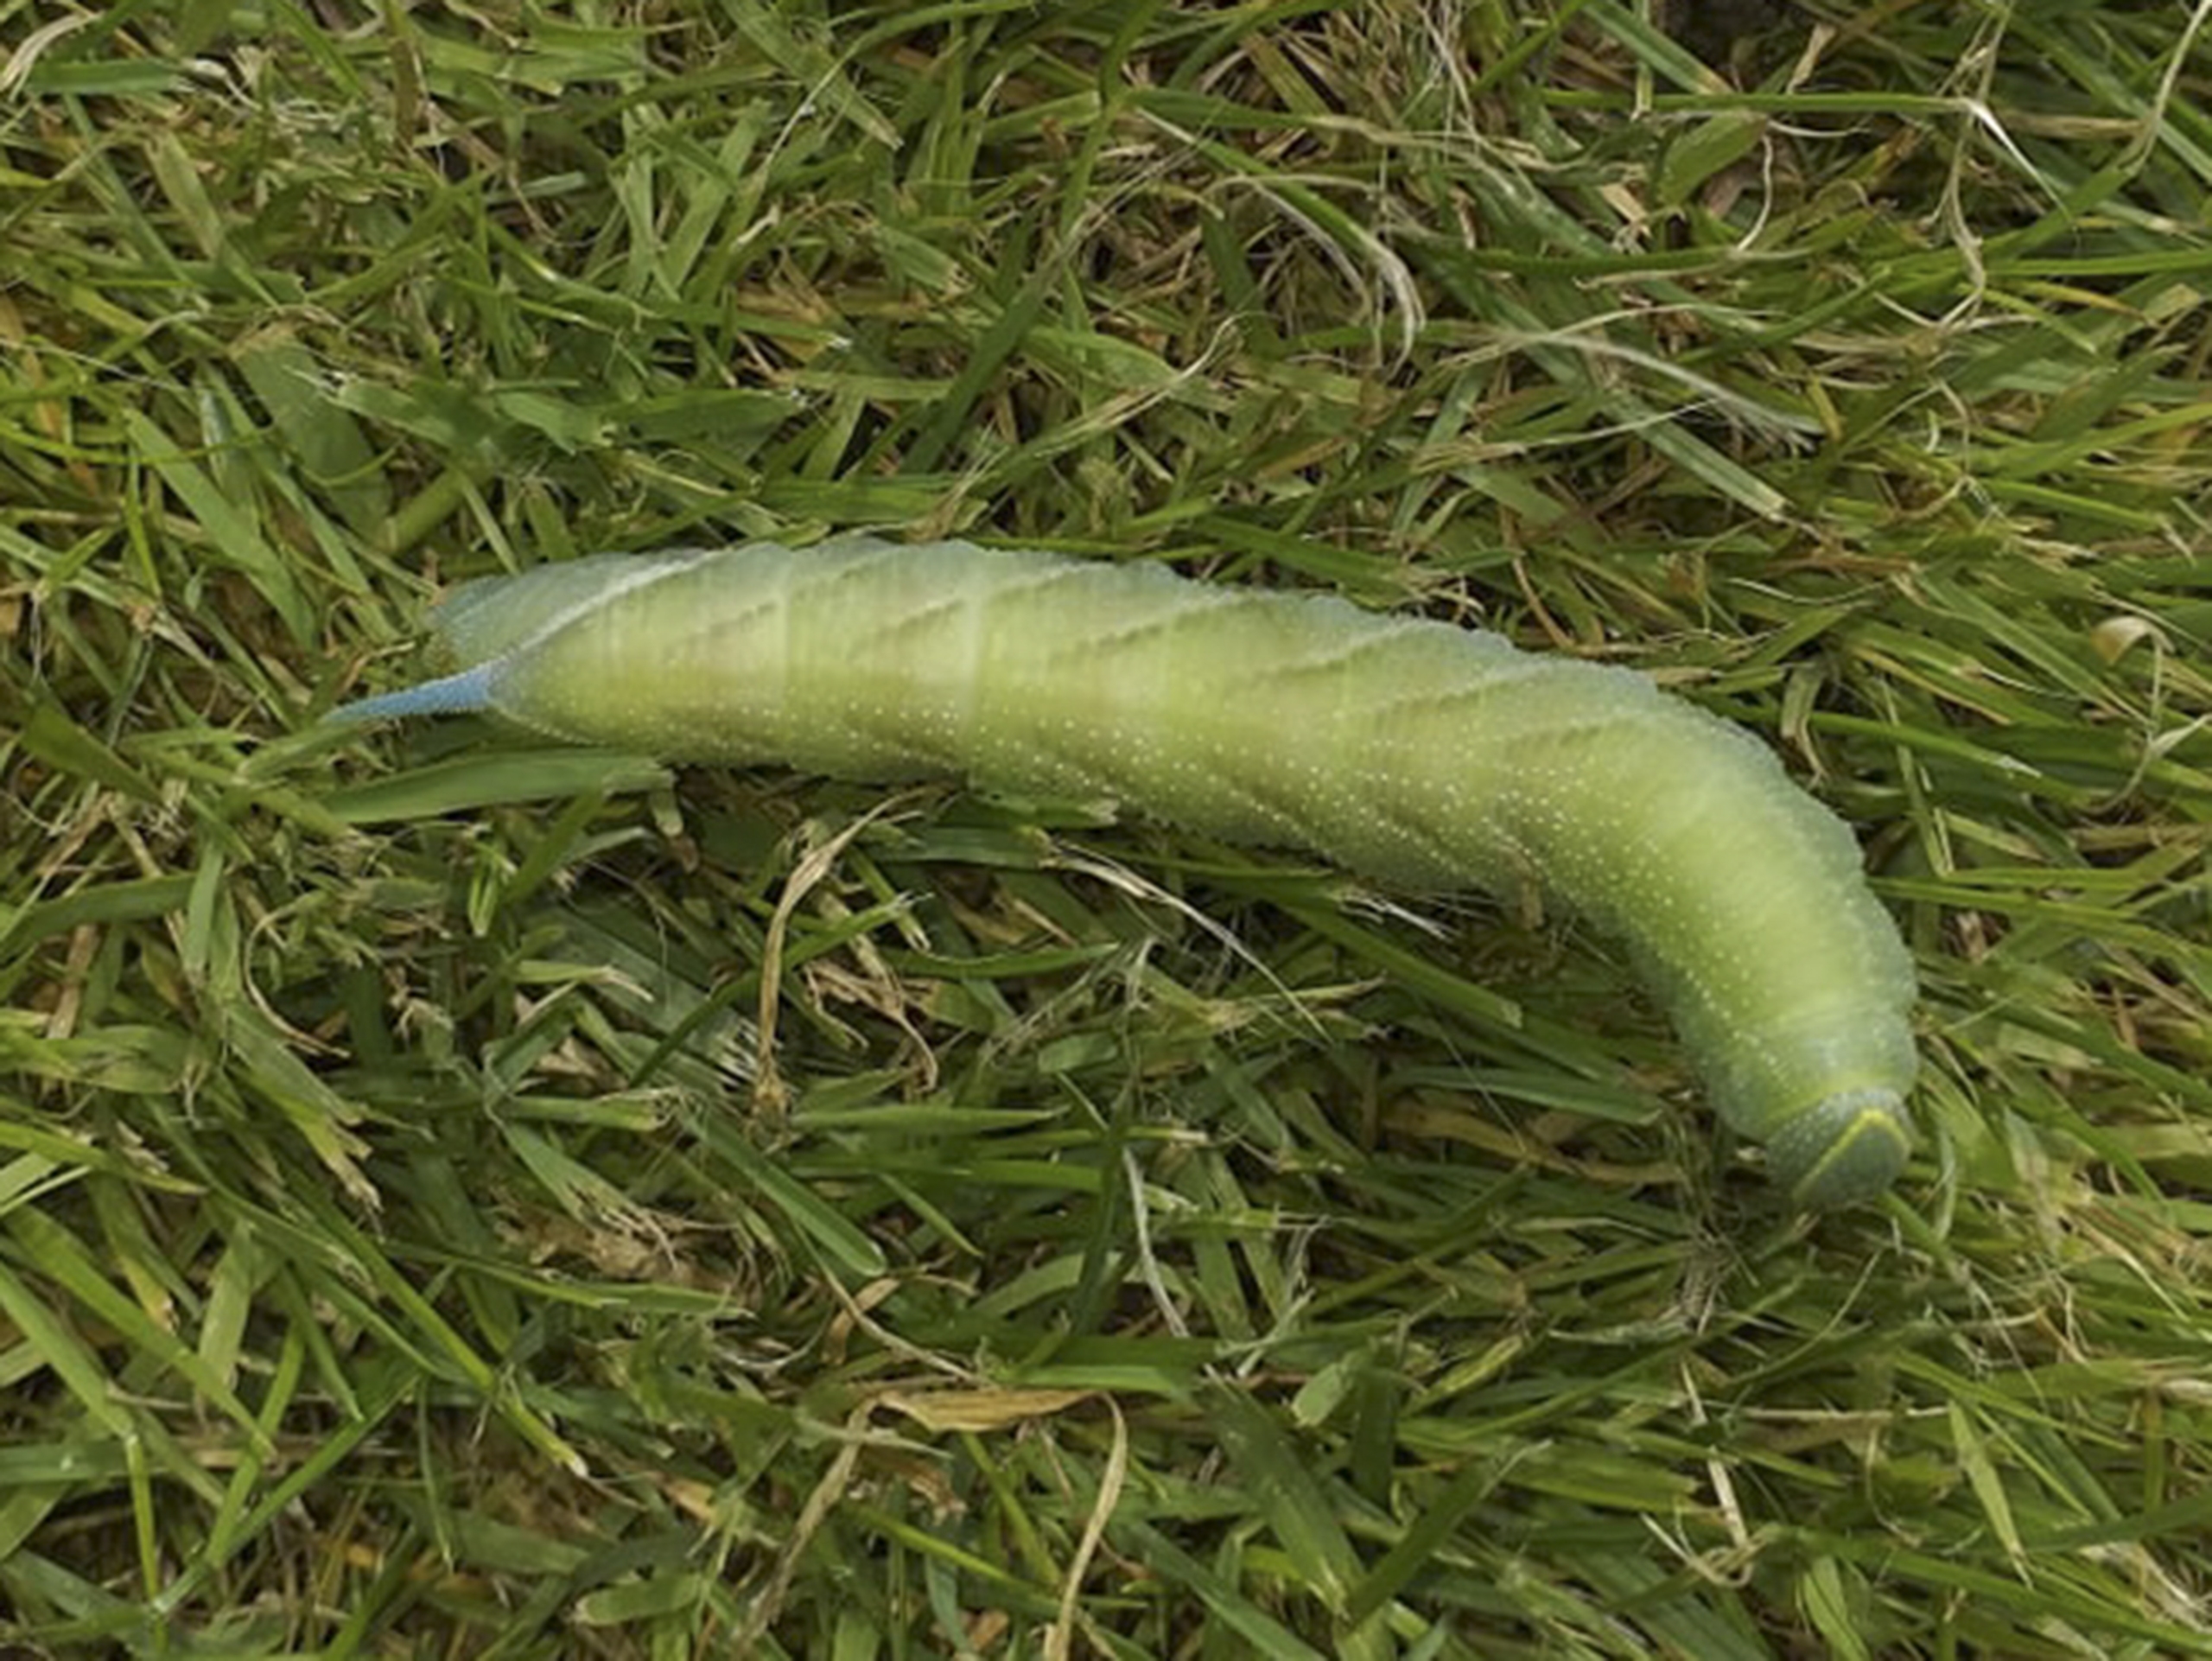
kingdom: Animalia
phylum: Arthropoda
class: Insecta
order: Lepidoptera
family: Sphingidae
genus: Smerinthus
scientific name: Smerinthus ocellata
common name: Aftenpåfugleøje
